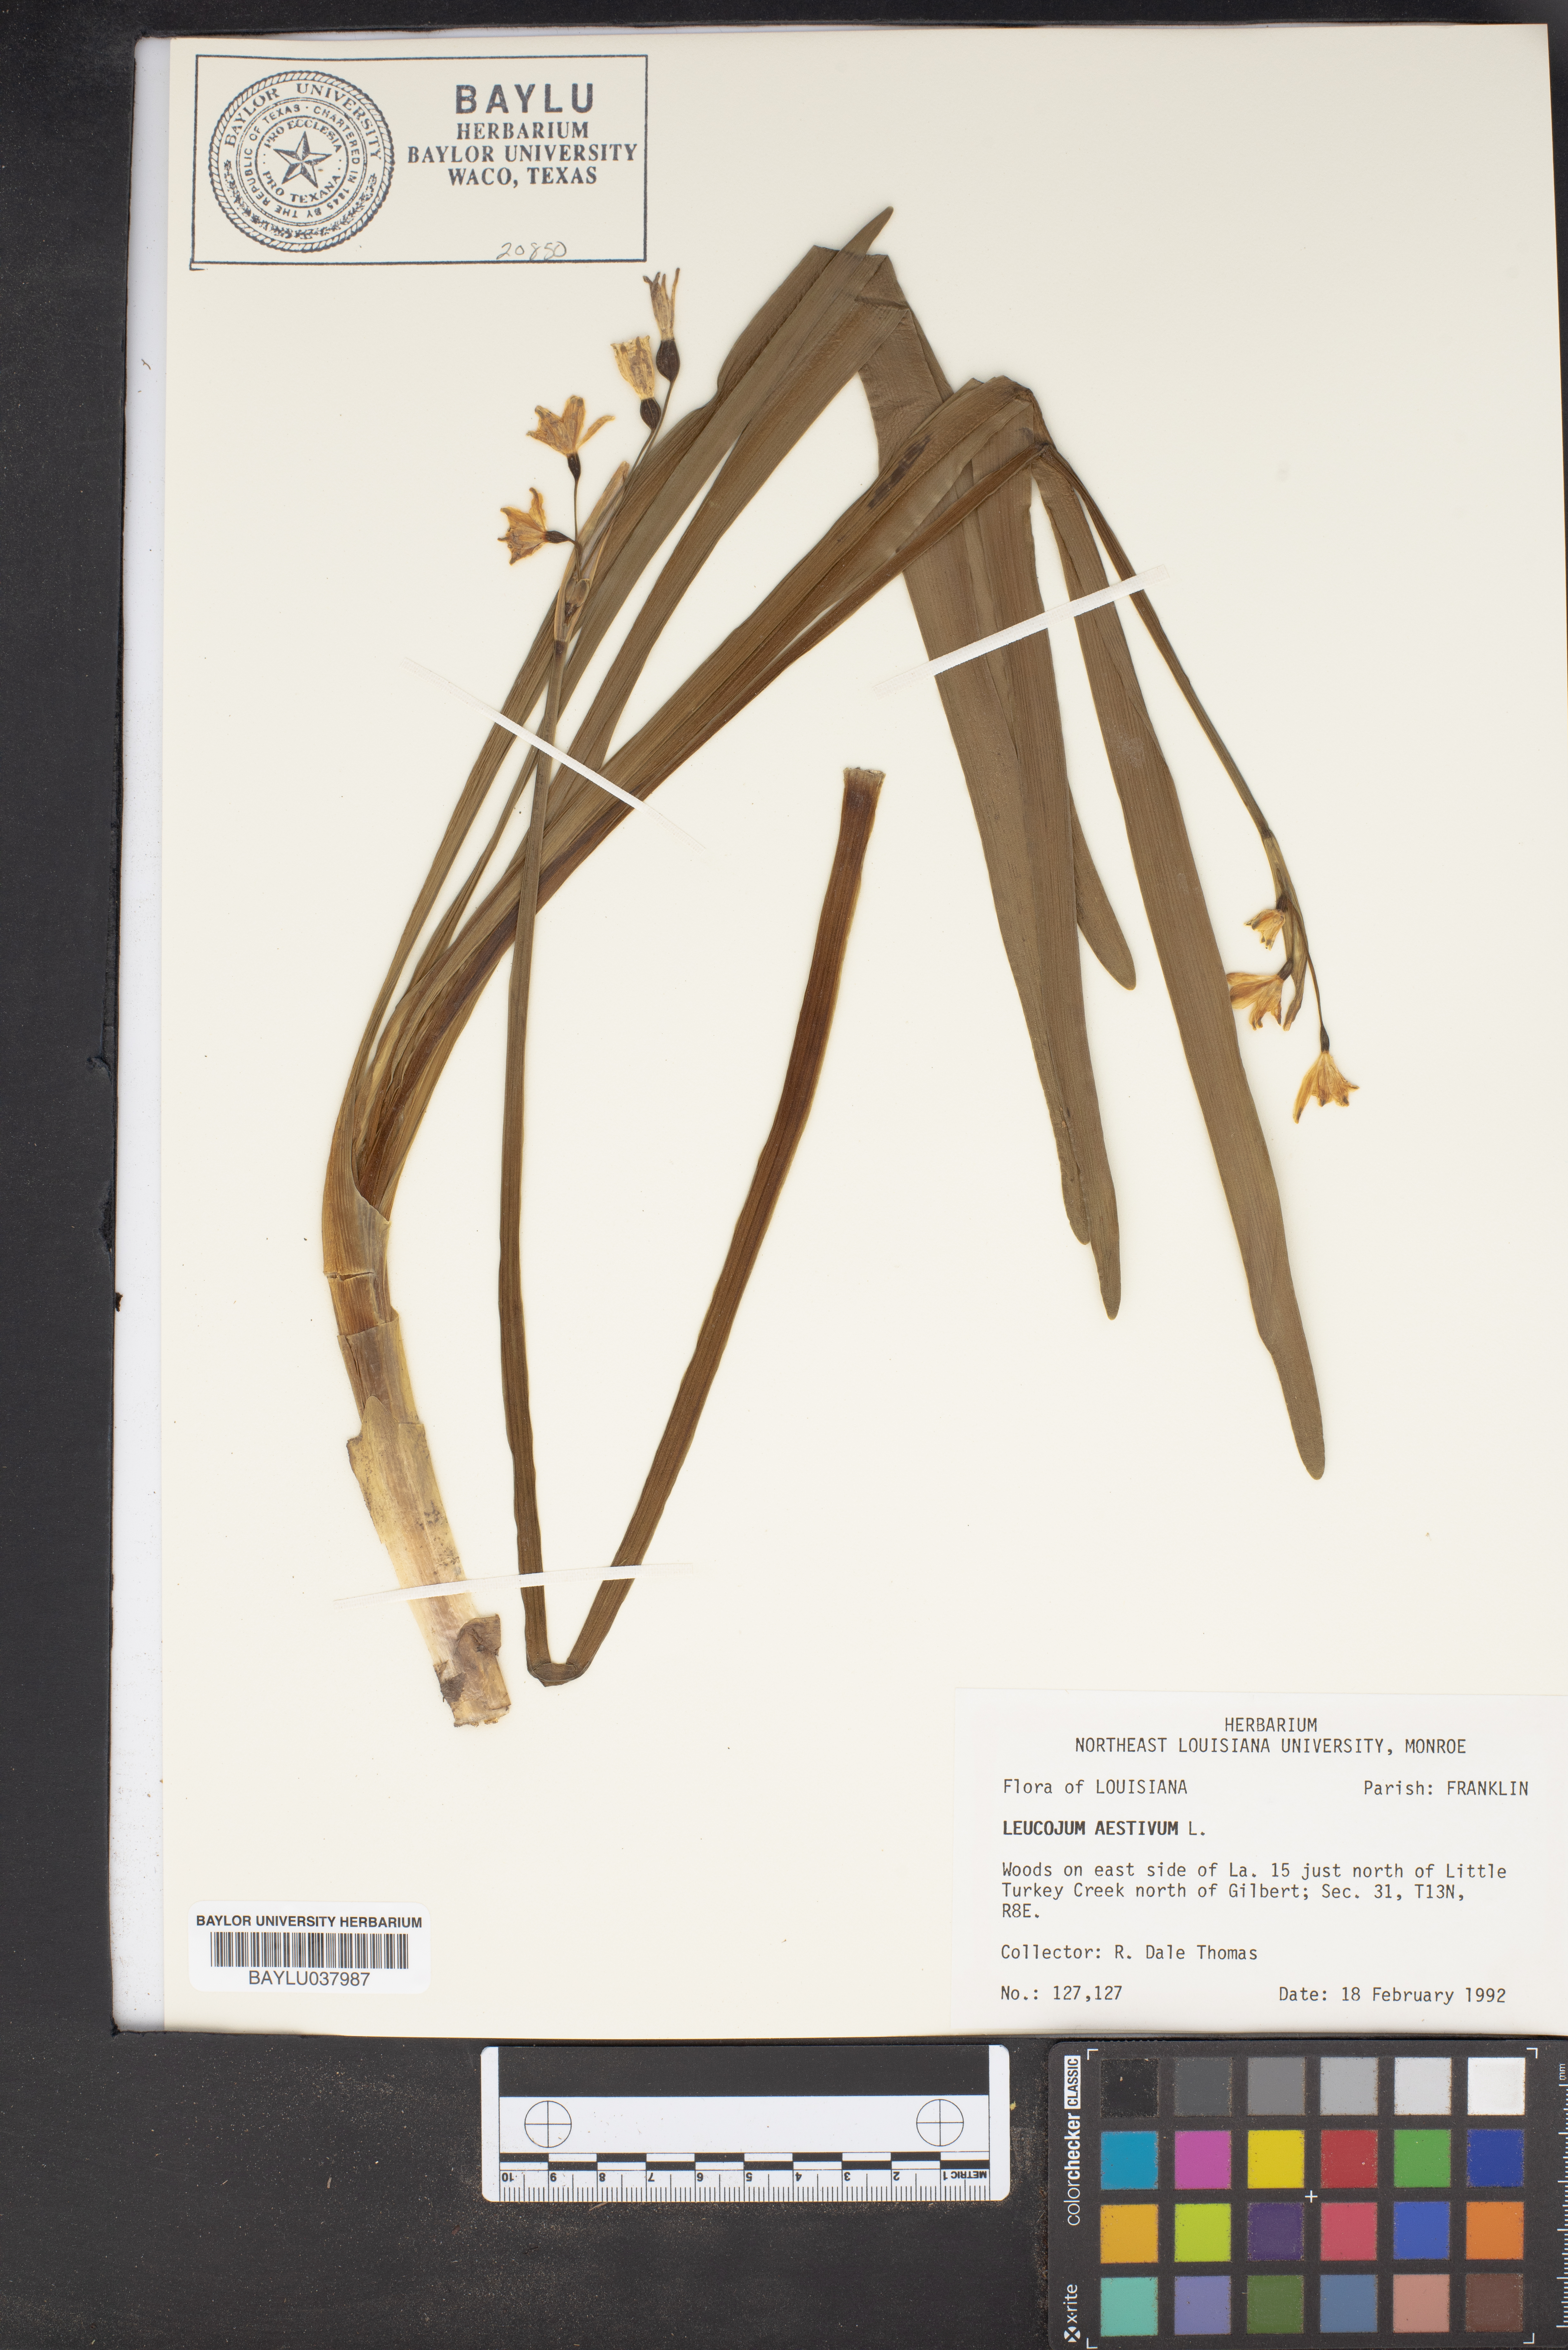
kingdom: Plantae
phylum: Tracheophyta
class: Liliopsida
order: Asparagales
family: Amaryllidaceae
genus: Leucojum
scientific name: Leucojum aestivum
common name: Summer snowflake
